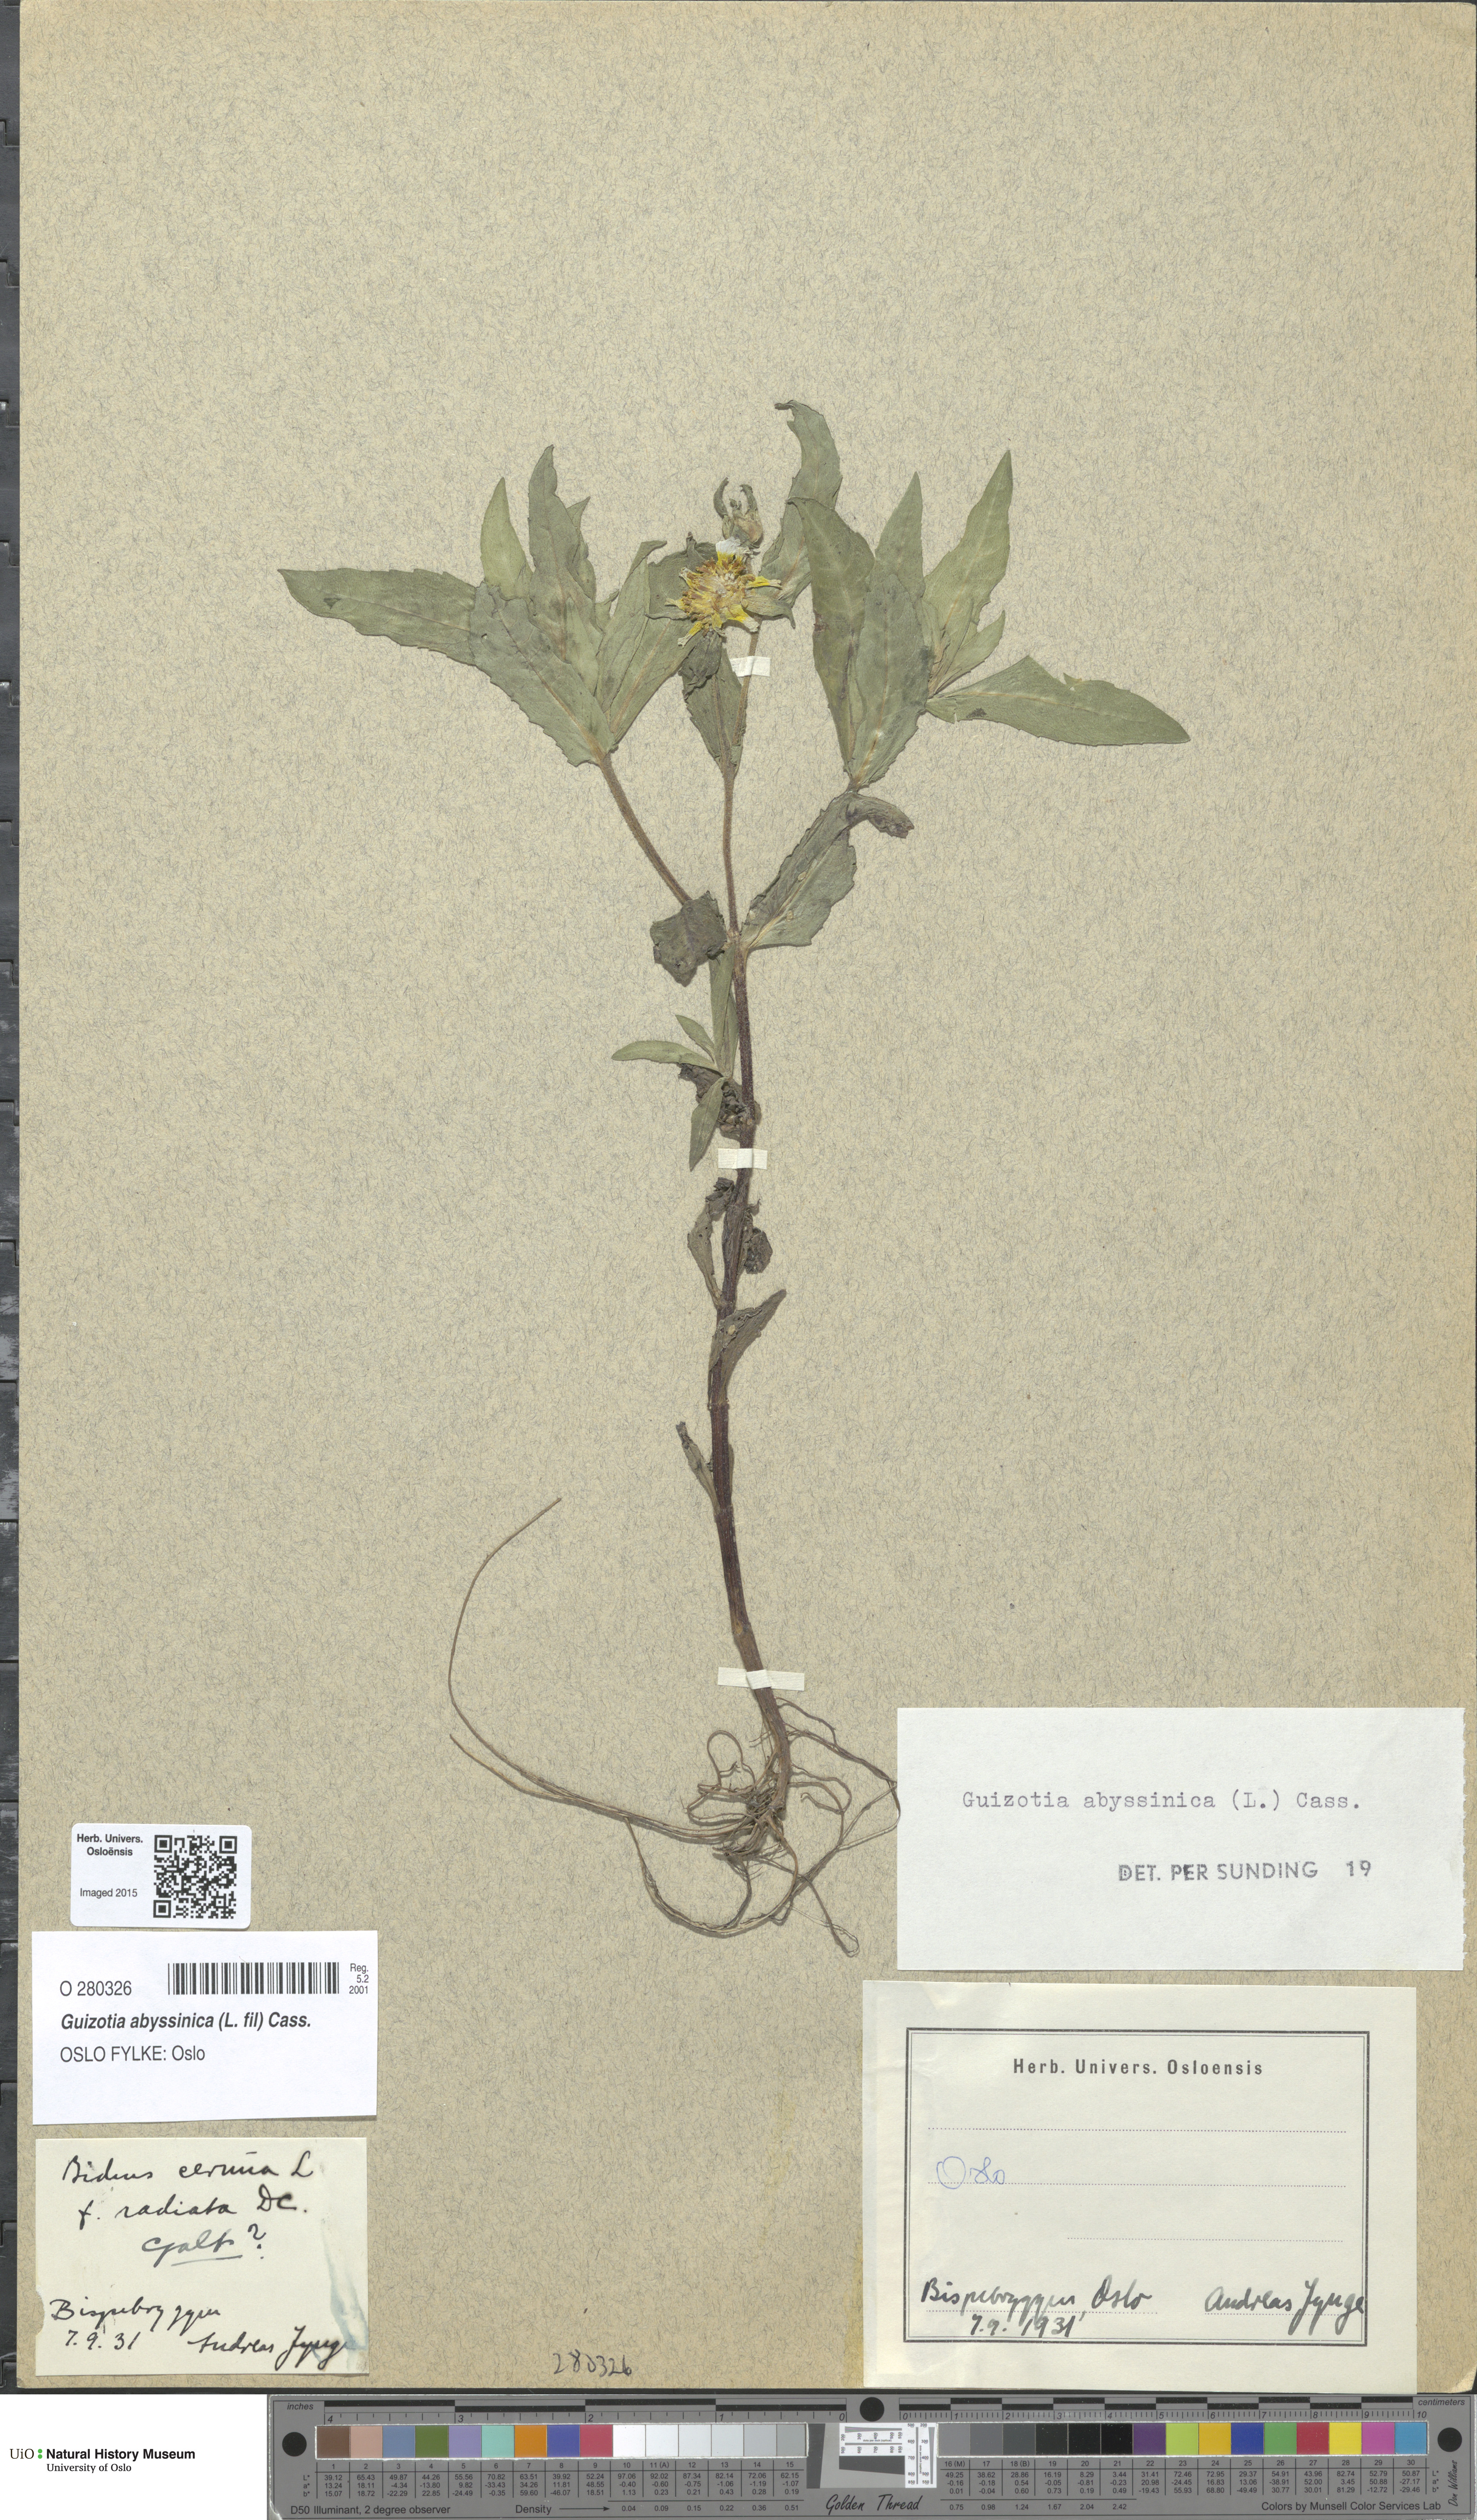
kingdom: Plantae
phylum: Tracheophyta
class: Magnoliopsida
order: Asterales
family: Asteraceae
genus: Guizotia
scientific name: Guizotia abyssinica
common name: Niger
